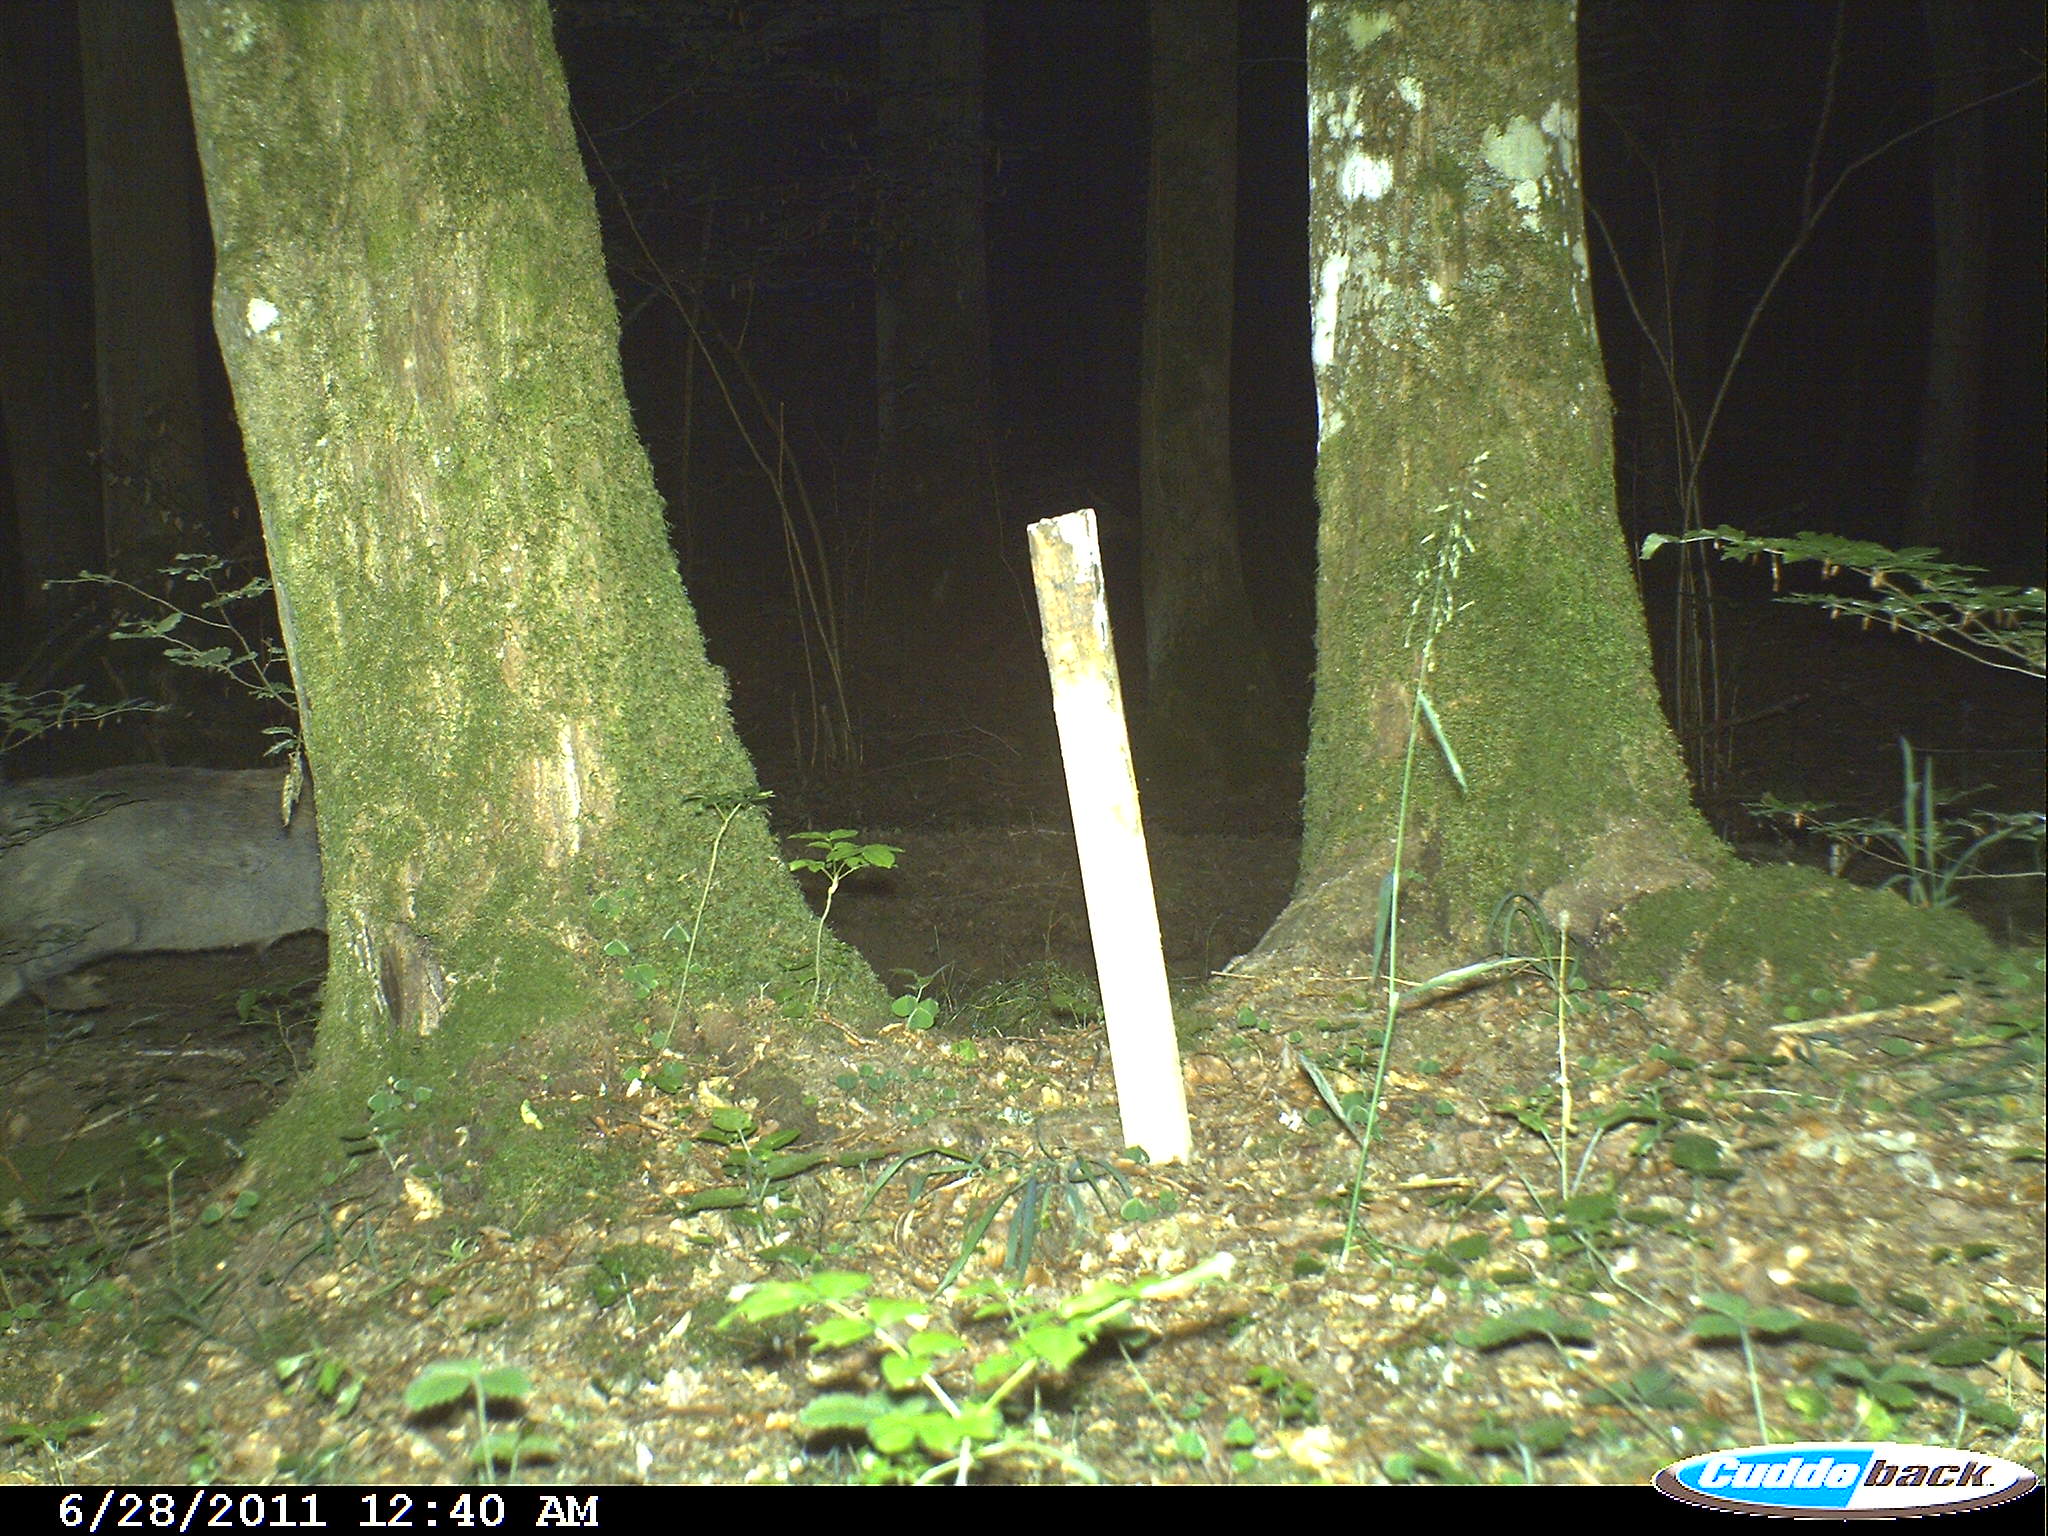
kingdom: Animalia
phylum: Chordata
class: Mammalia
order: Artiodactyla
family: Suidae
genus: Sus
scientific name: Sus scrofa
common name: Wild boar
